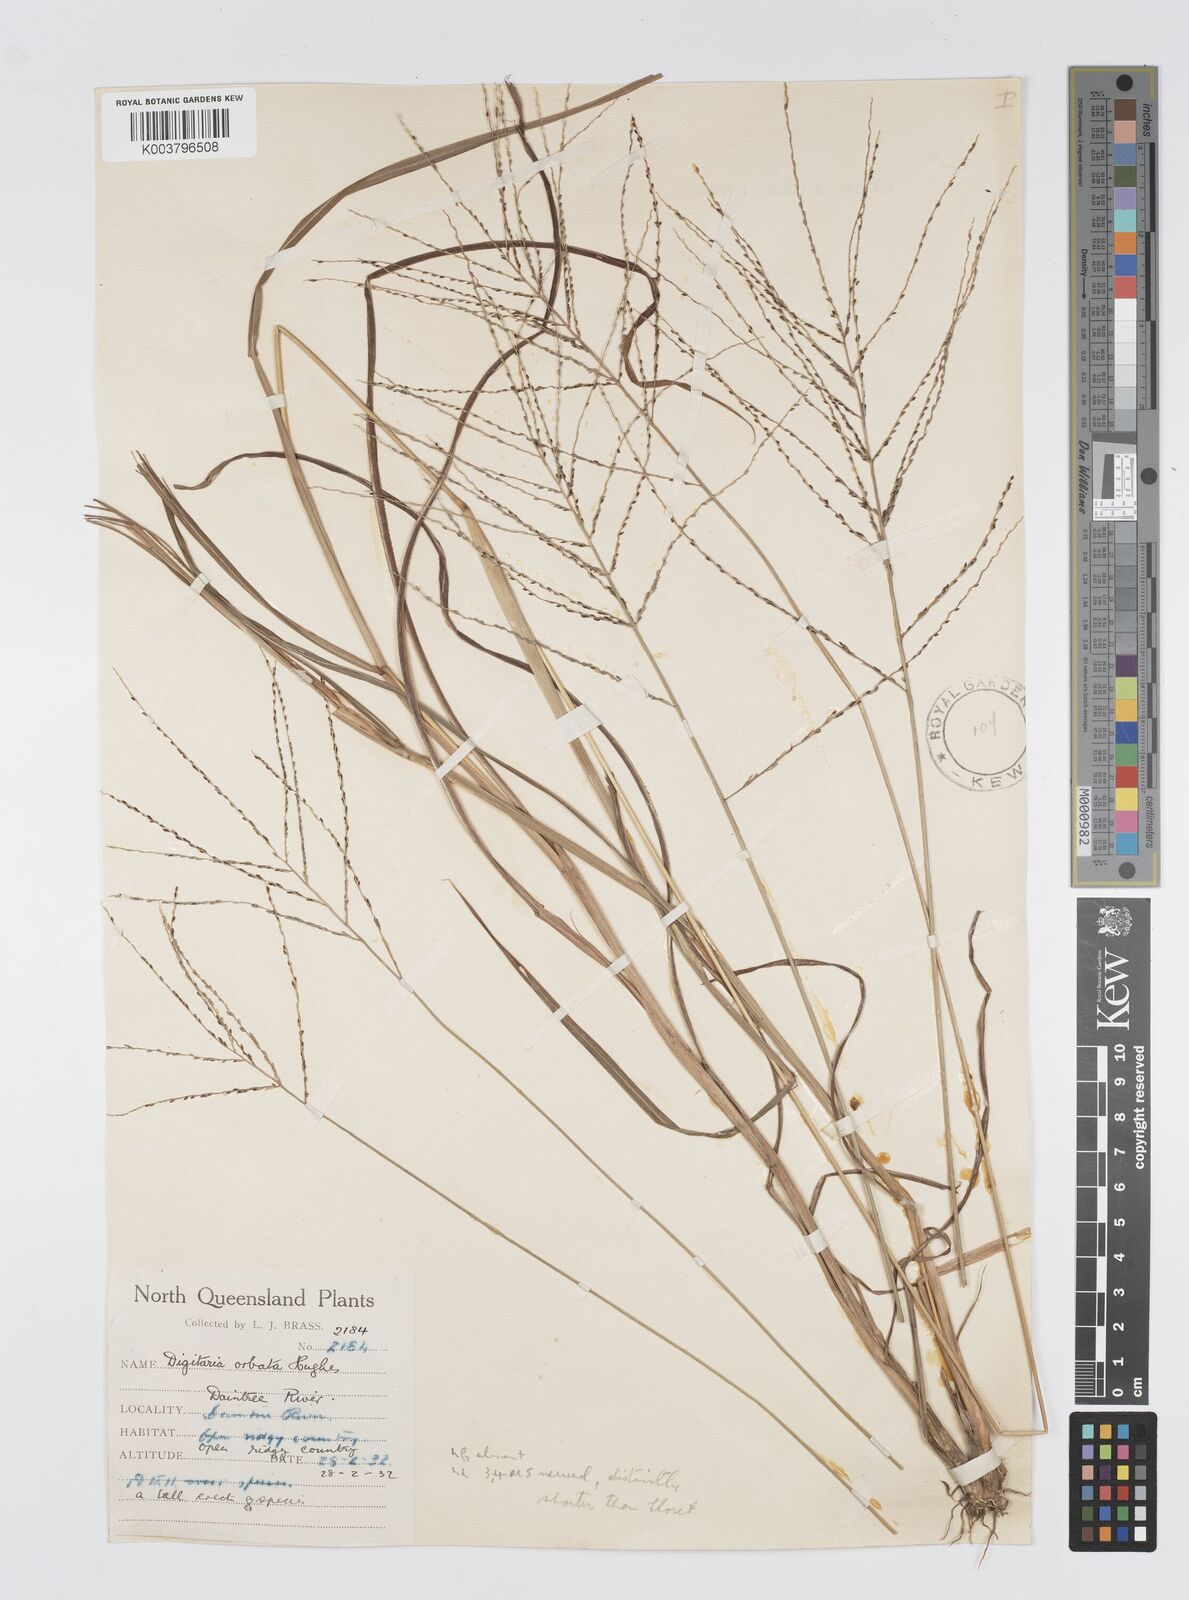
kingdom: Plantae
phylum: Tracheophyta
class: Liliopsida
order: Poales
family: Poaceae
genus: Digitaria
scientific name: Digitaria orbata
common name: Crabgrass
